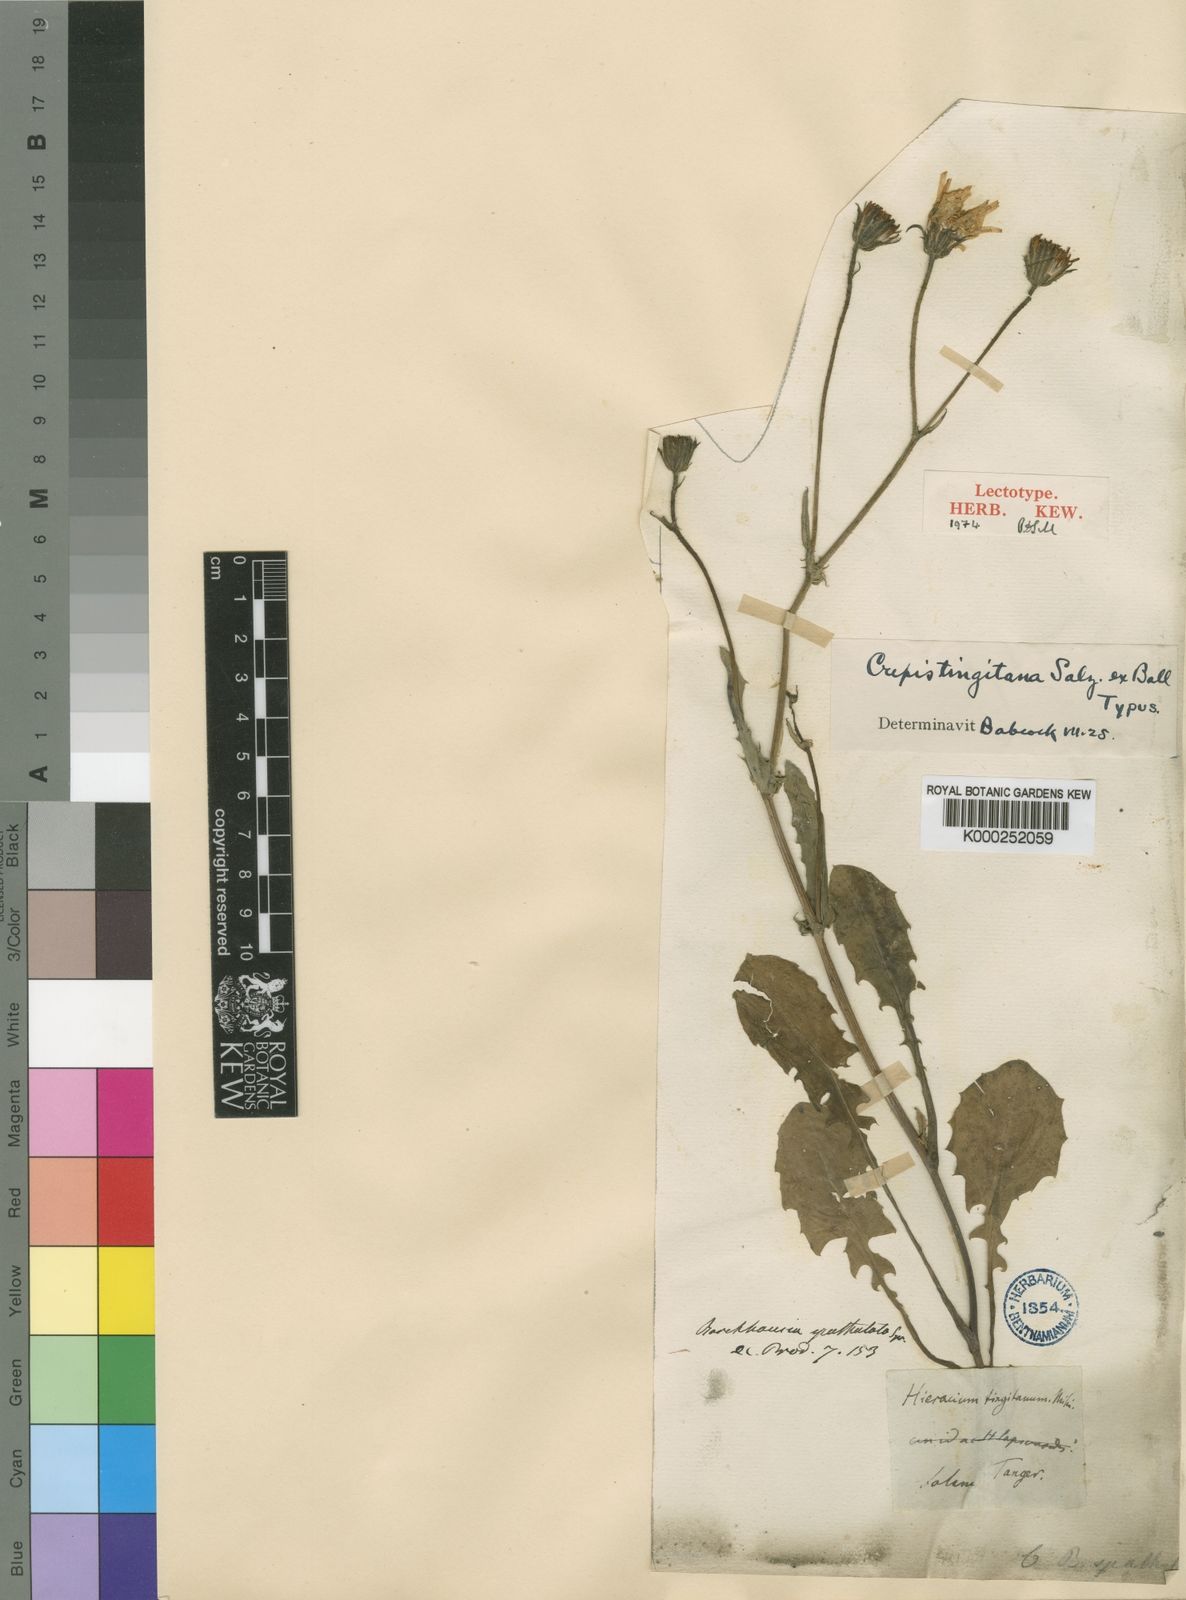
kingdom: Plantae
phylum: Tracheophyta
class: Magnoliopsida
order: Asterales
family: Asteraceae
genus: Crepis
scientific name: Crepis tingitana
